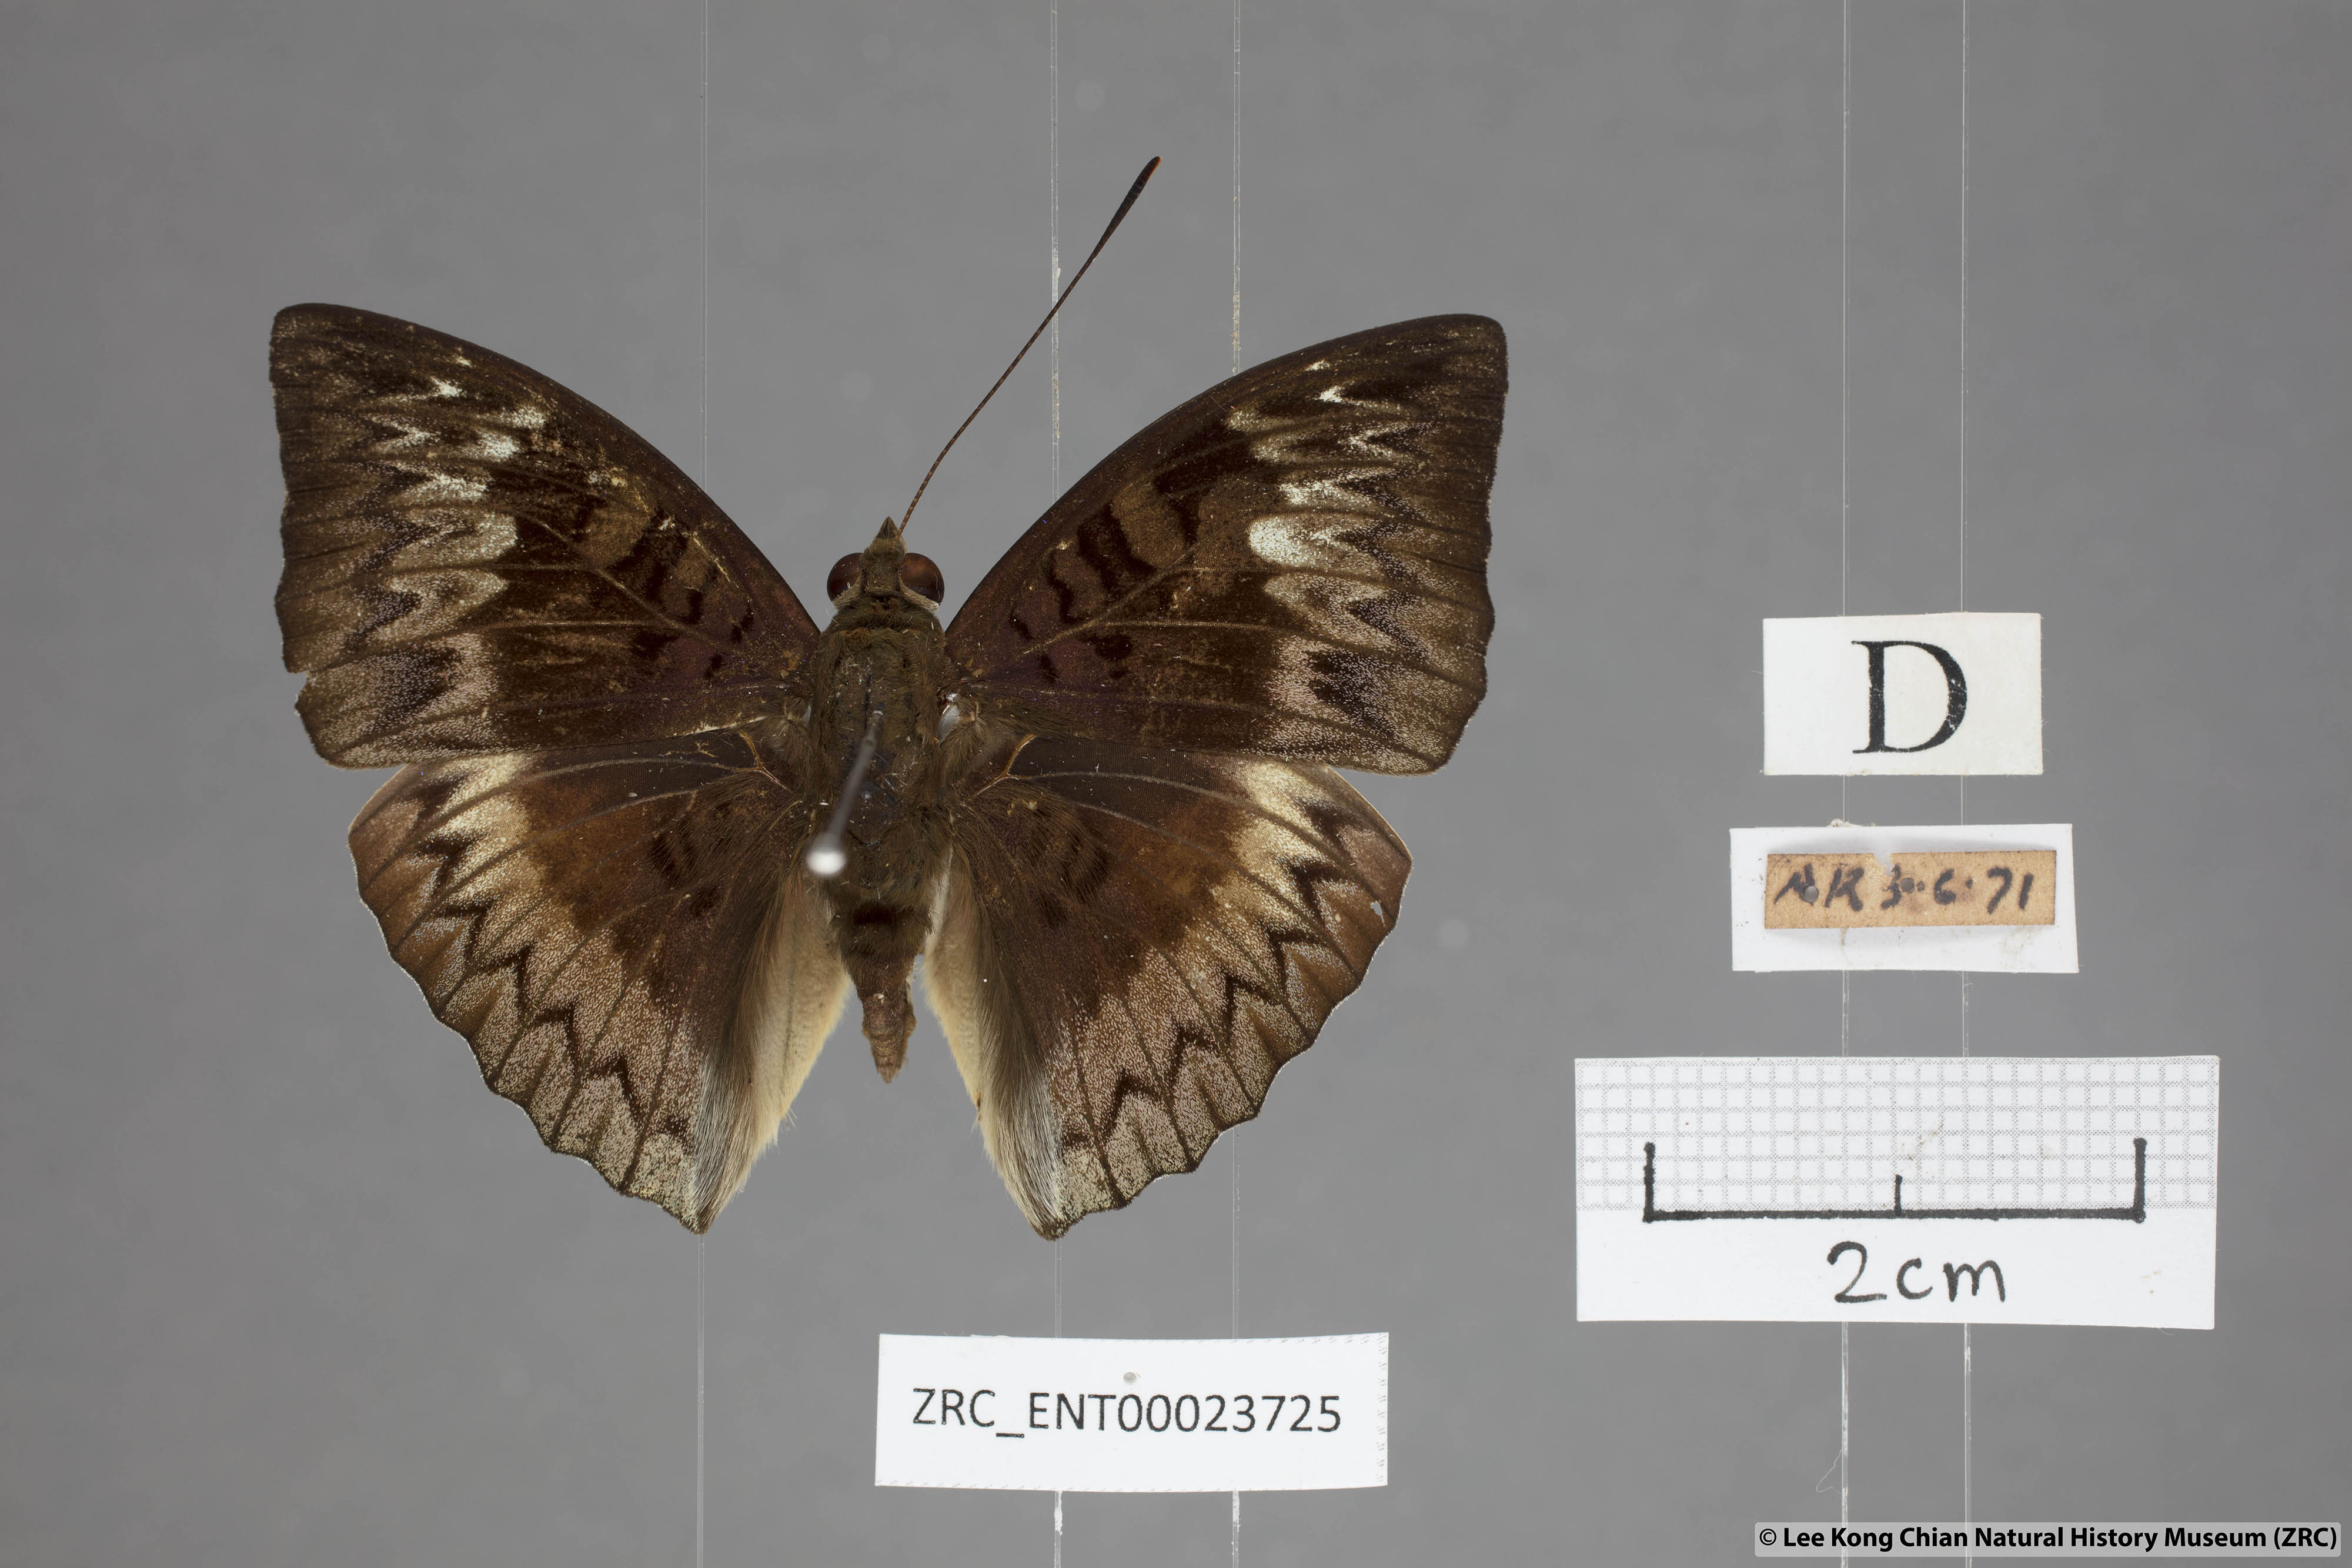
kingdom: Animalia
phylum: Arthropoda
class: Insecta
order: Lepidoptera
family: Nymphalidae
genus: Euthalia
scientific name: Euthalia monina
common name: Powdered baron
